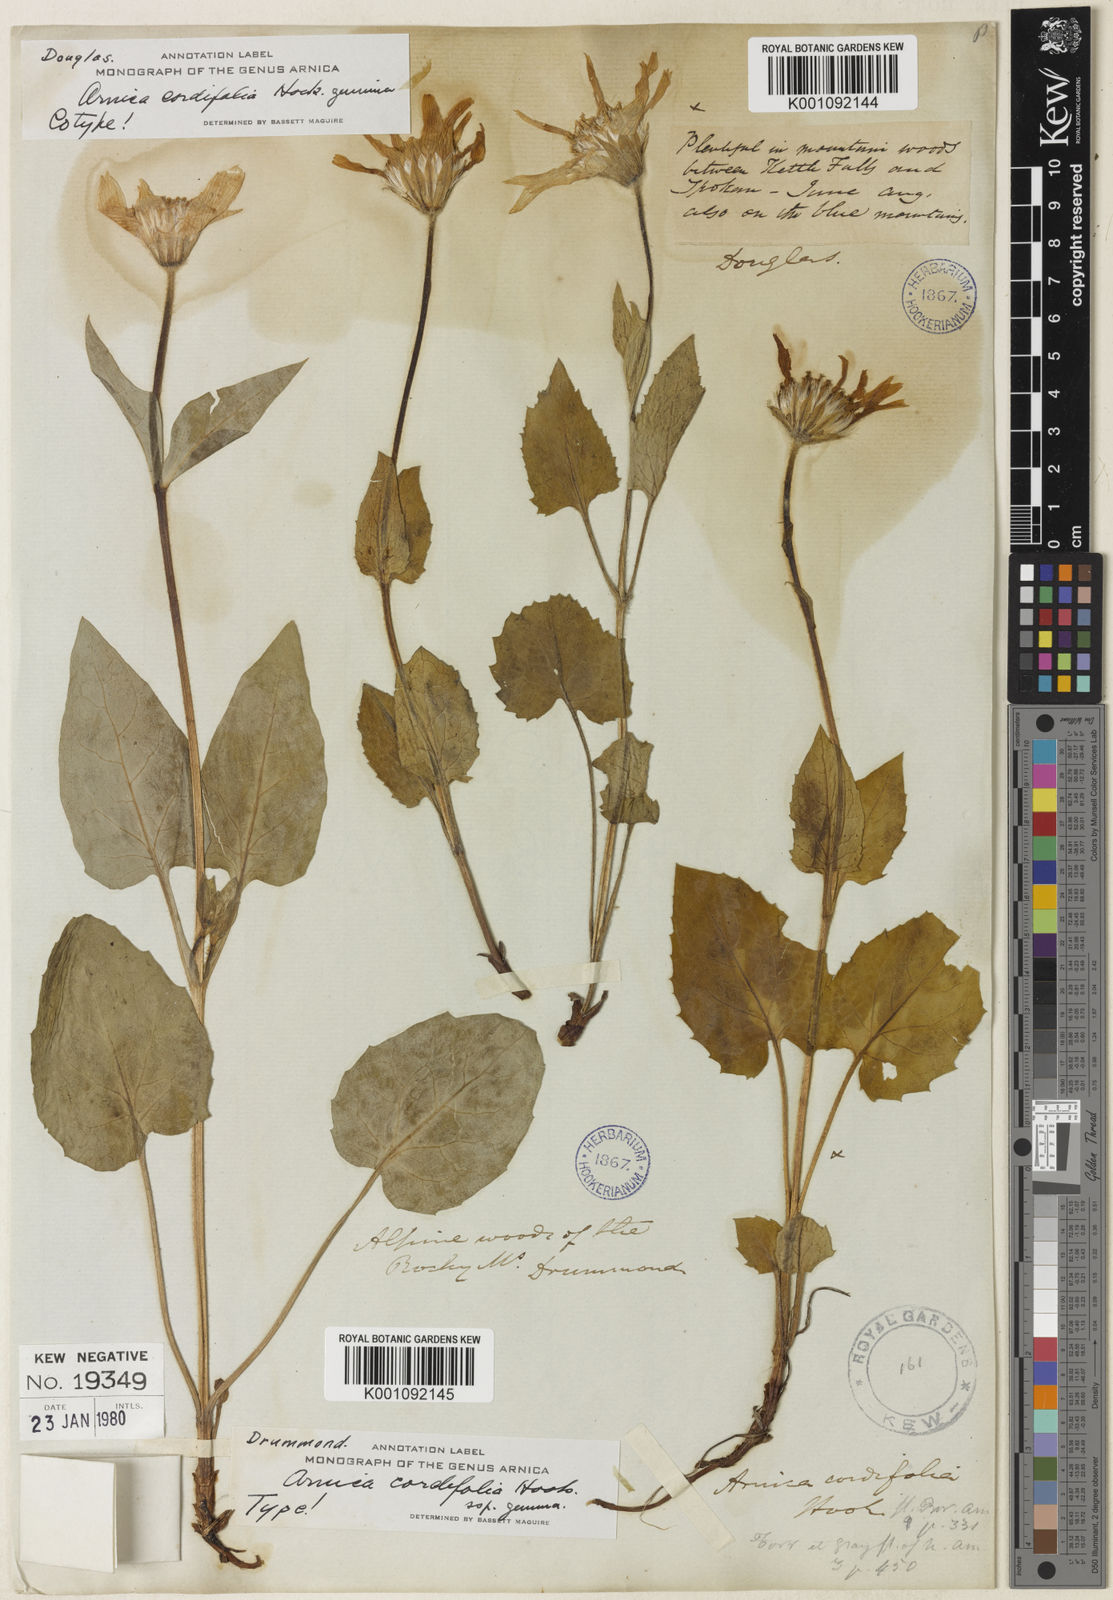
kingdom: Plantae
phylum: Tracheophyta
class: Magnoliopsida
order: Asterales
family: Asteraceae
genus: Arnica
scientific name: Arnica cordifolia
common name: Heart-leaf arnica
